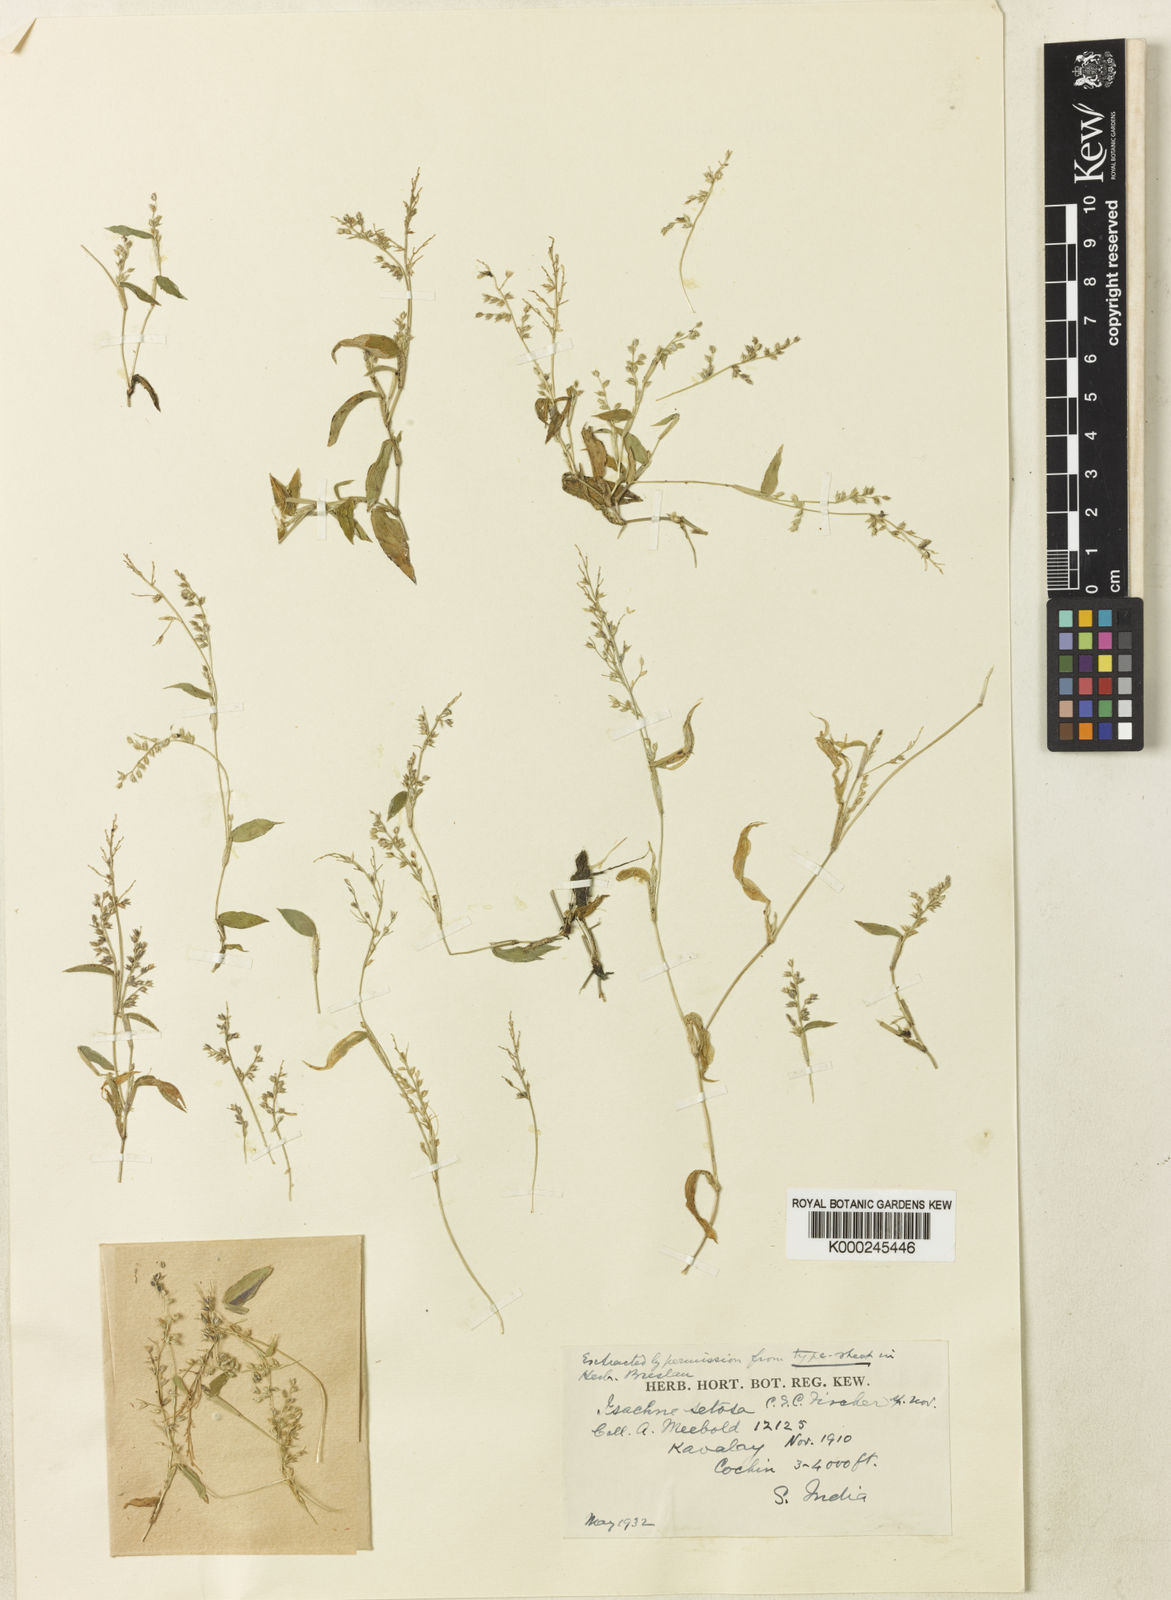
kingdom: Plantae
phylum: Tracheophyta
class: Liliopsida
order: Poales
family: Poaceae
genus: Isachne
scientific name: Isachne setosa
